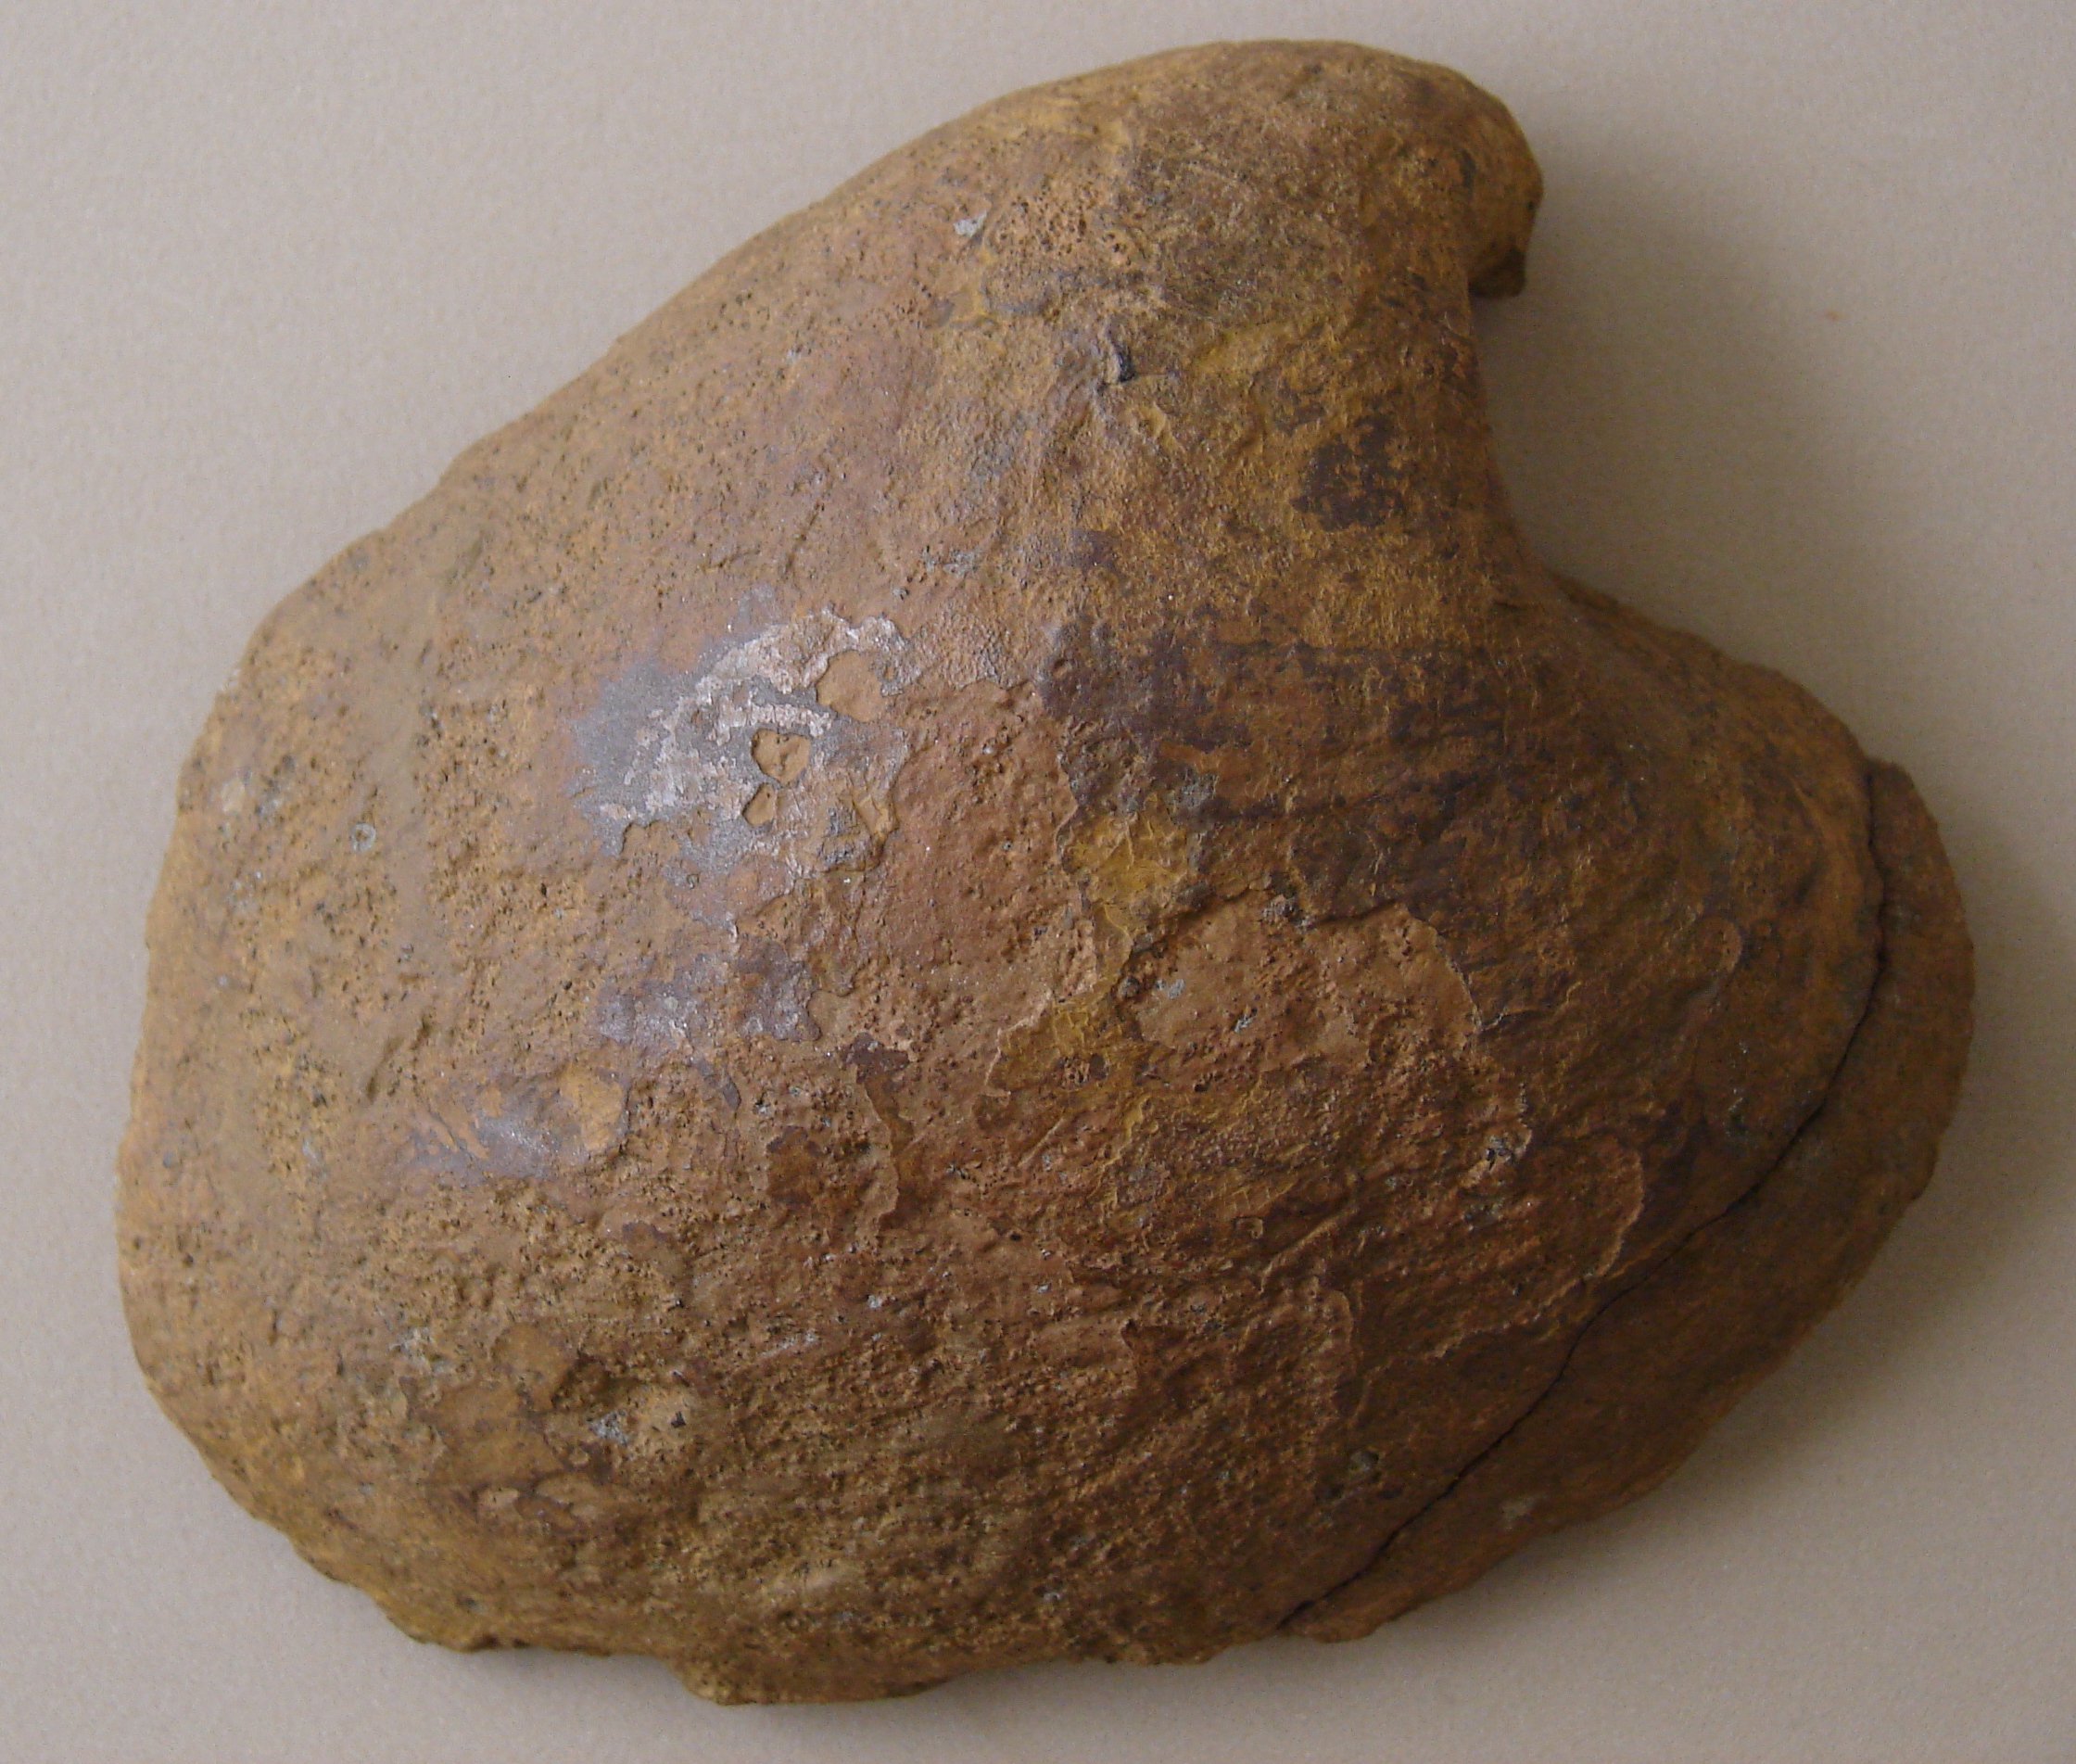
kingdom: Animalia
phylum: Mollusca
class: Bivalvia
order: Myida
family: Ceratomyidae
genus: Ceratomya
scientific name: Ceratomya
